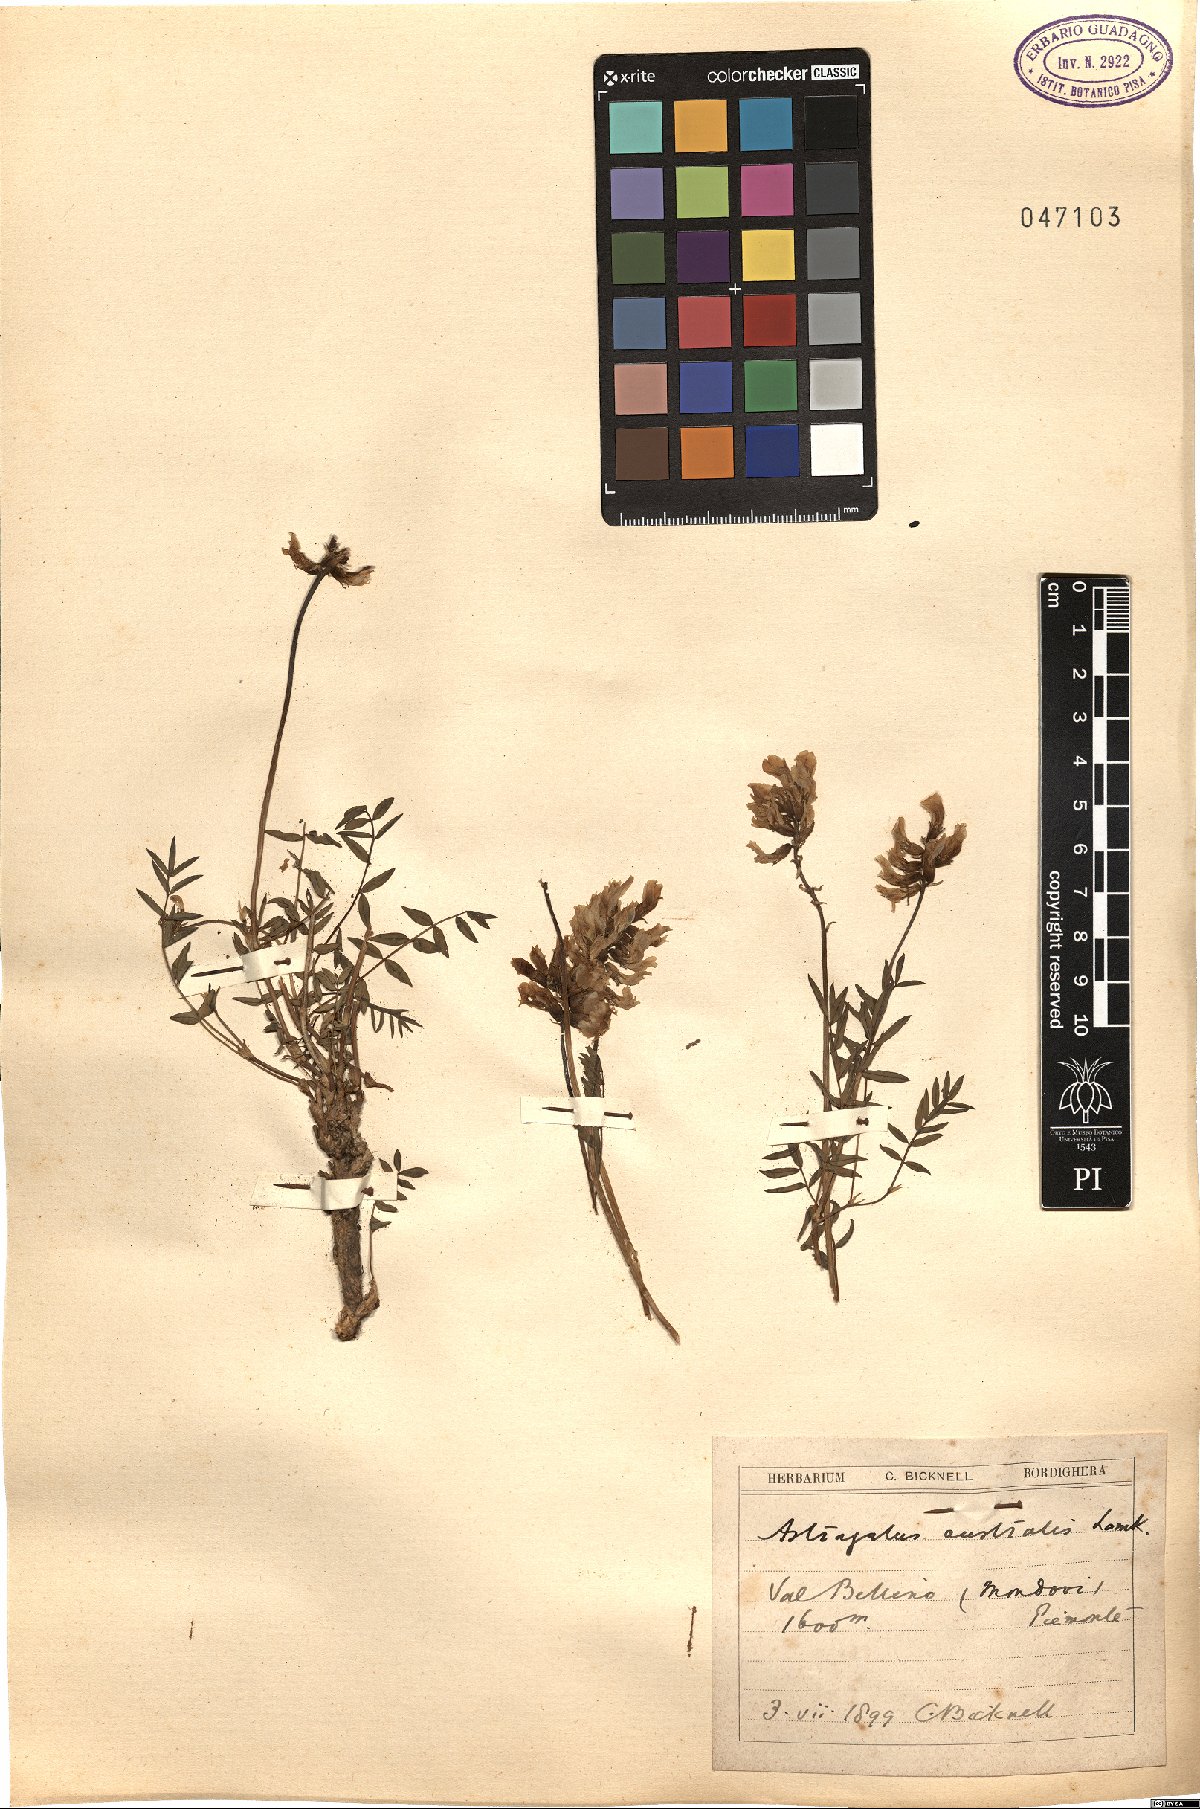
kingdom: Plantae
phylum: Tracheophyta
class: Magnoliopsida
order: Fabales
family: Fabaceae
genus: Astragalus
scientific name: Astragalus australis
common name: Indian milk-vetch
